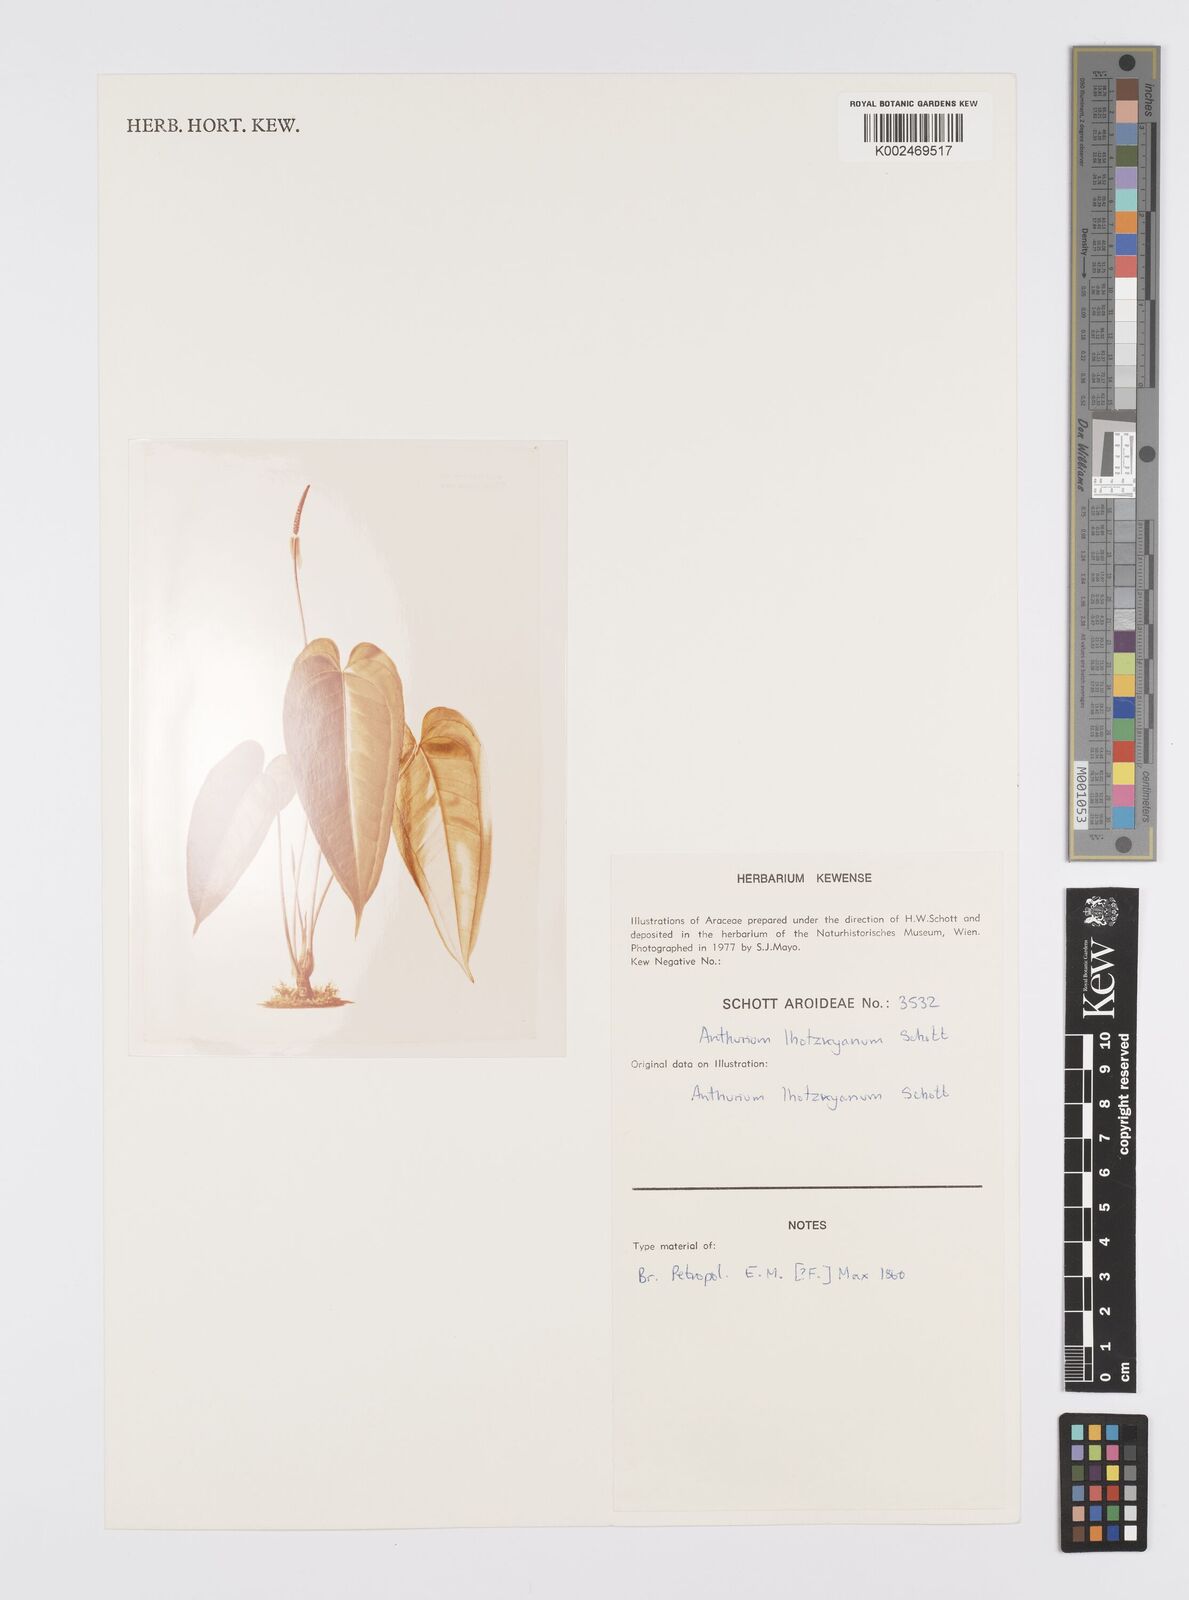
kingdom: Plantae
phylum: Tracheophyta
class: Liliopsida
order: Alismatales
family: Araceae
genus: Anthurium
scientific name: Anthurium augustinum
